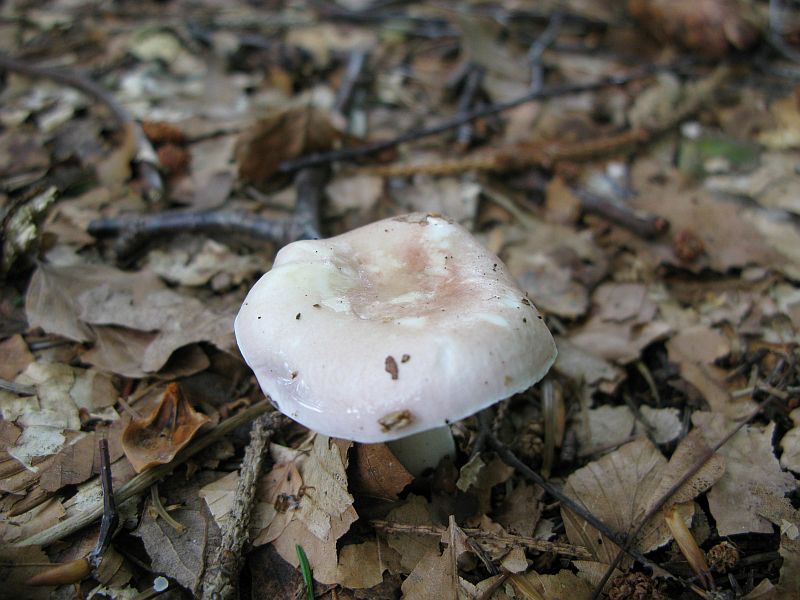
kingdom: Fungi
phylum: Basidiomycota
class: Agaricomycetes
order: Russulales
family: Russulaceae
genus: Russula
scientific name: Russula
